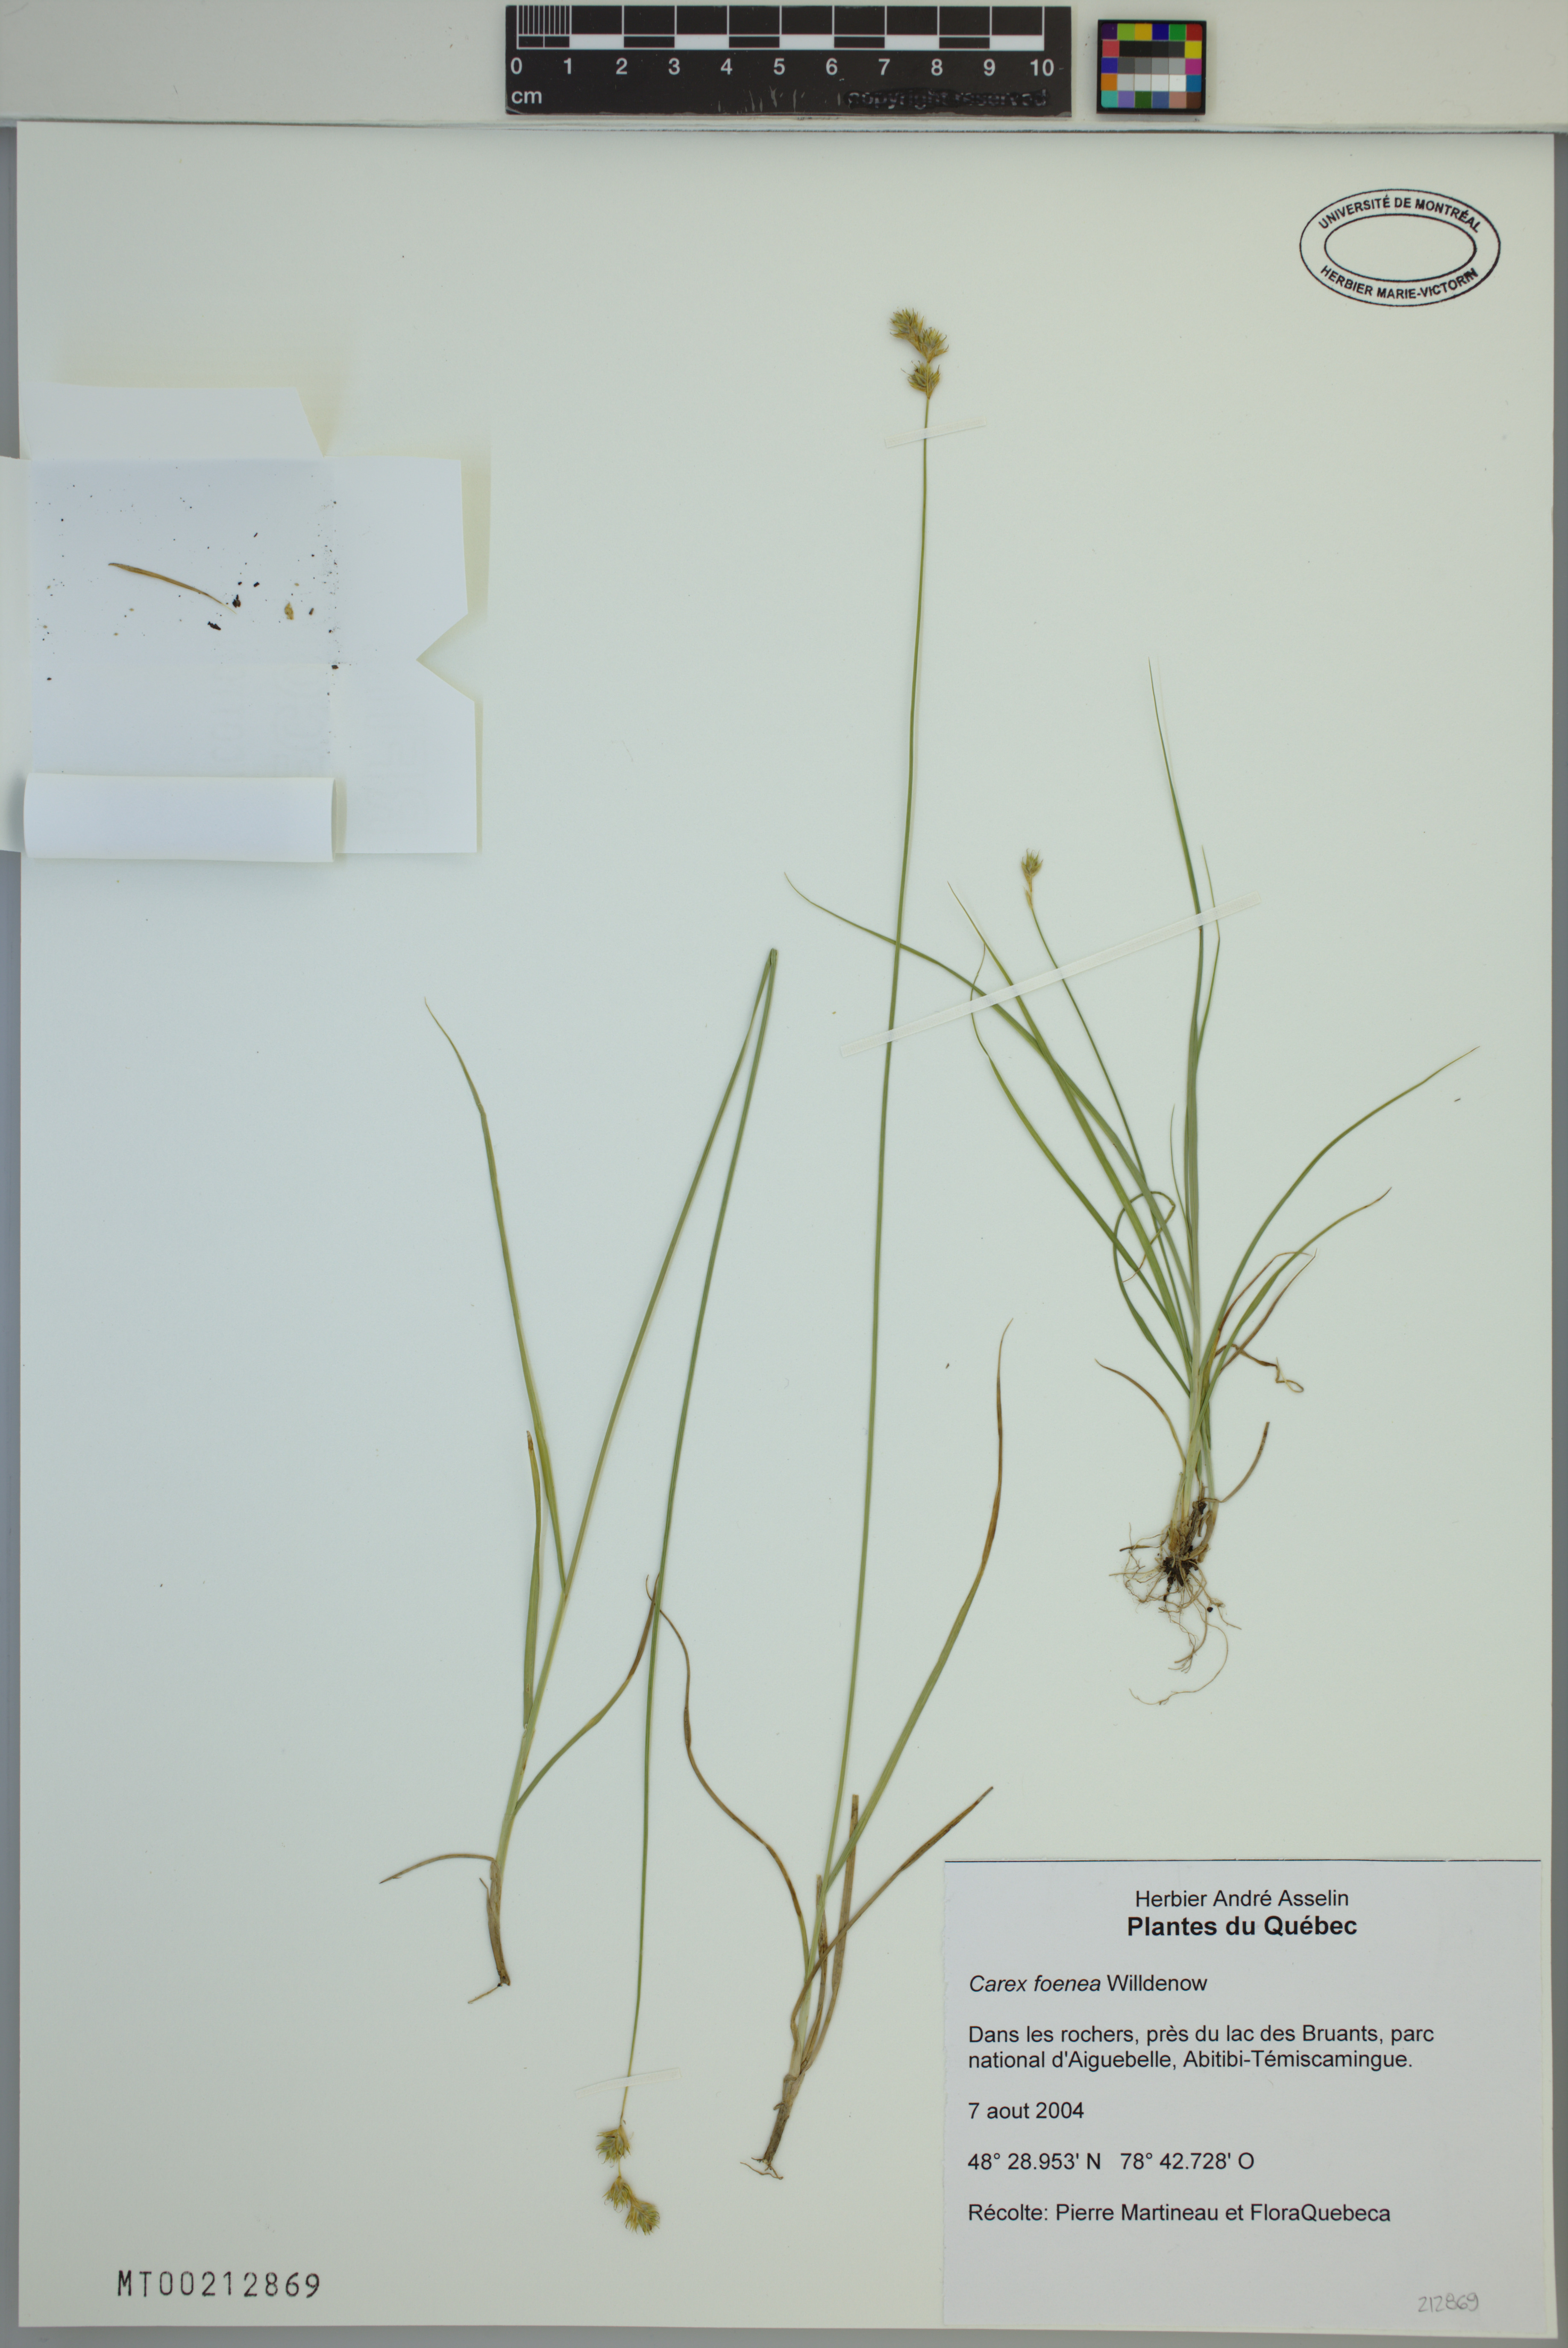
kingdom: Plantae
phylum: Tracheophyta
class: Liliopsida
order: Poales
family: Cyperaceae
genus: Carex
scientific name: Carex foenea
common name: Bronze sedge
